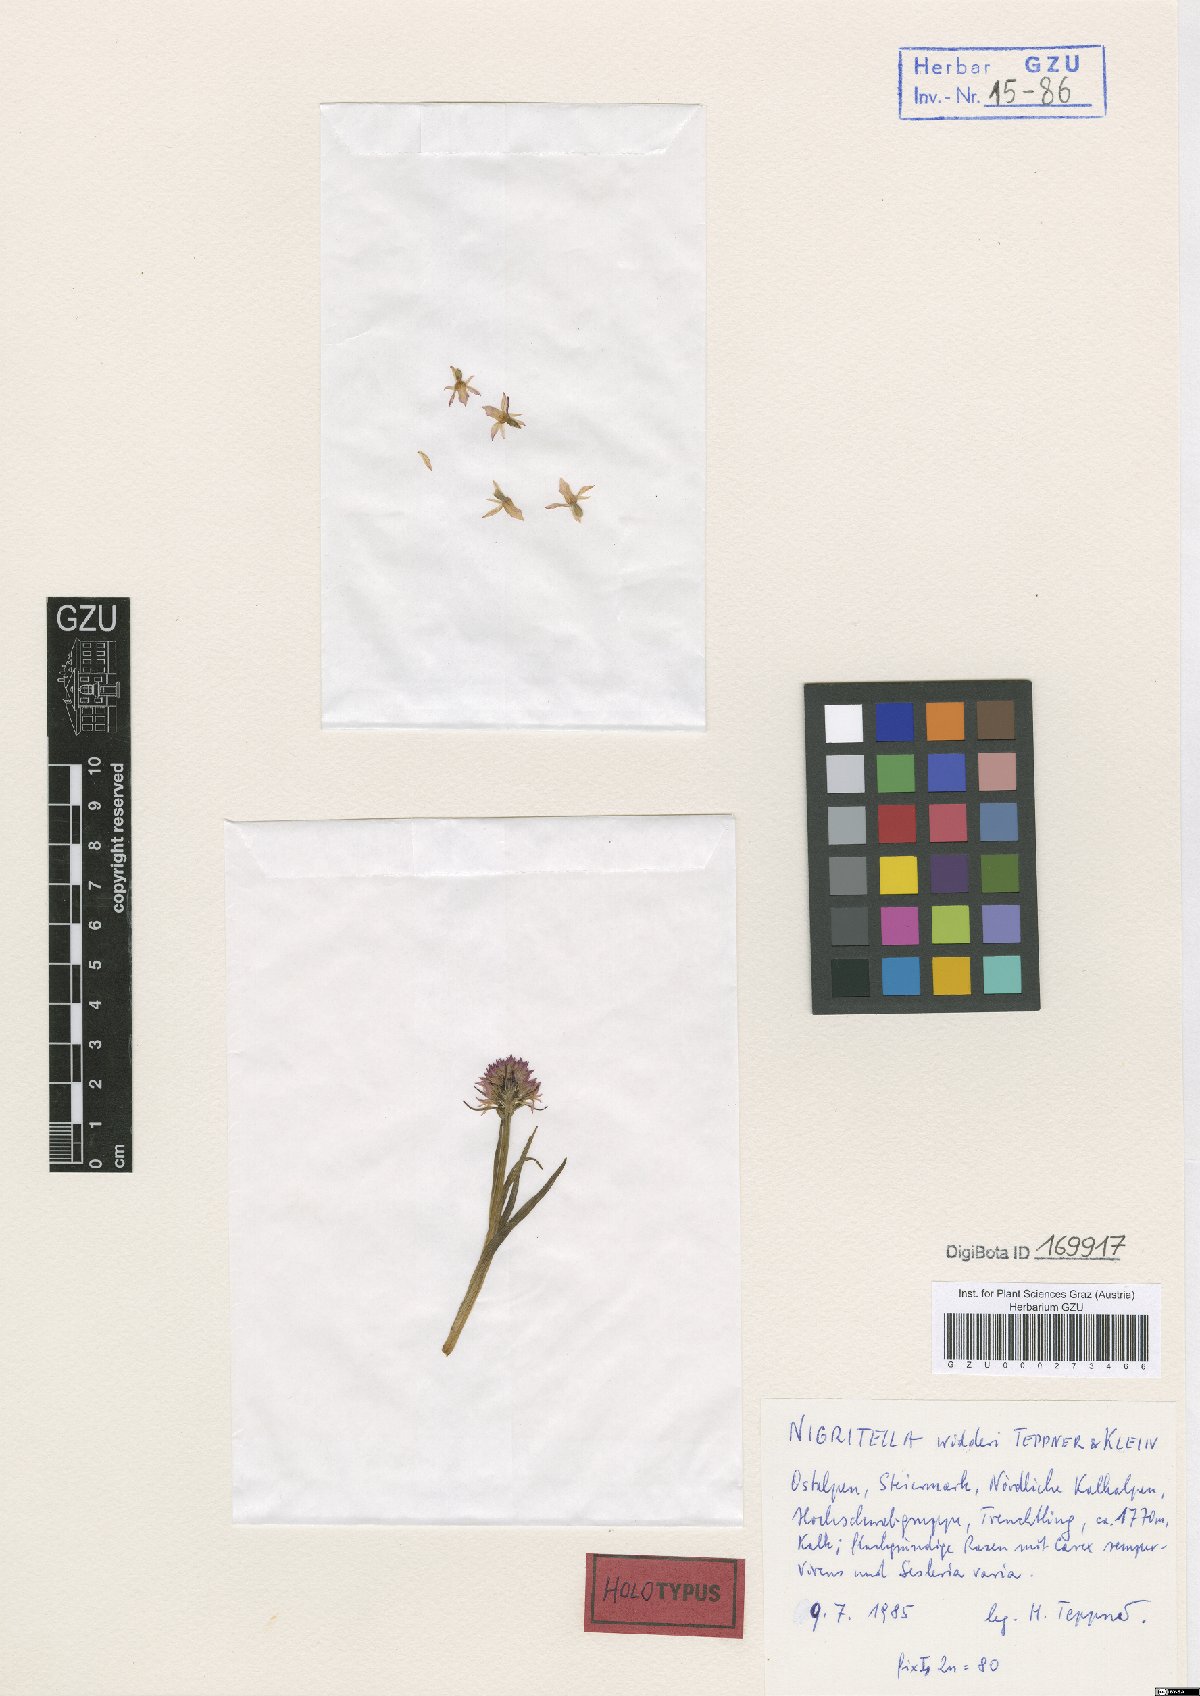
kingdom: Plantae
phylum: Tracheophyta
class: Liliopsida
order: Asparagales
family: Orchidaceae
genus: Gymnadenia
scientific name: Gymnadenia widderi
